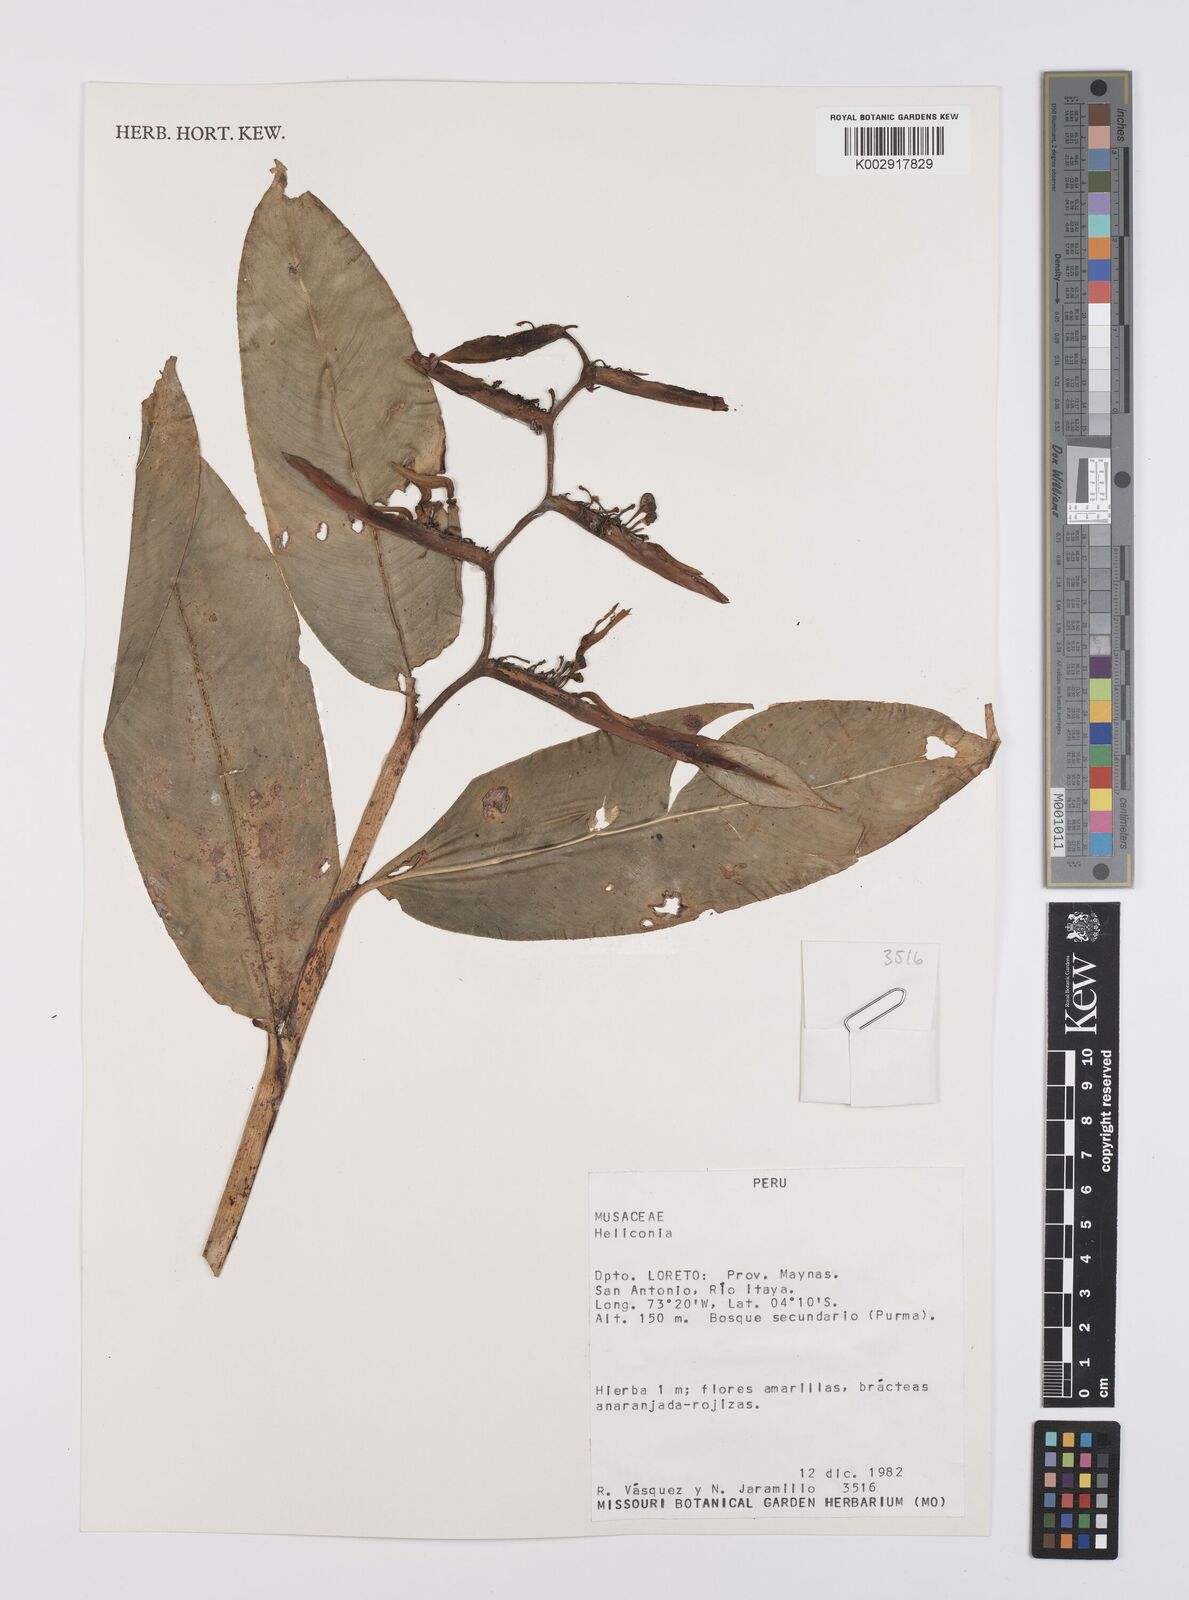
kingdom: Plantae
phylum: Tracheophyta
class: Liliopsida
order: Zingiberales
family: Heliconiaceae
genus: Heliconia
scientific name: Heliconia
